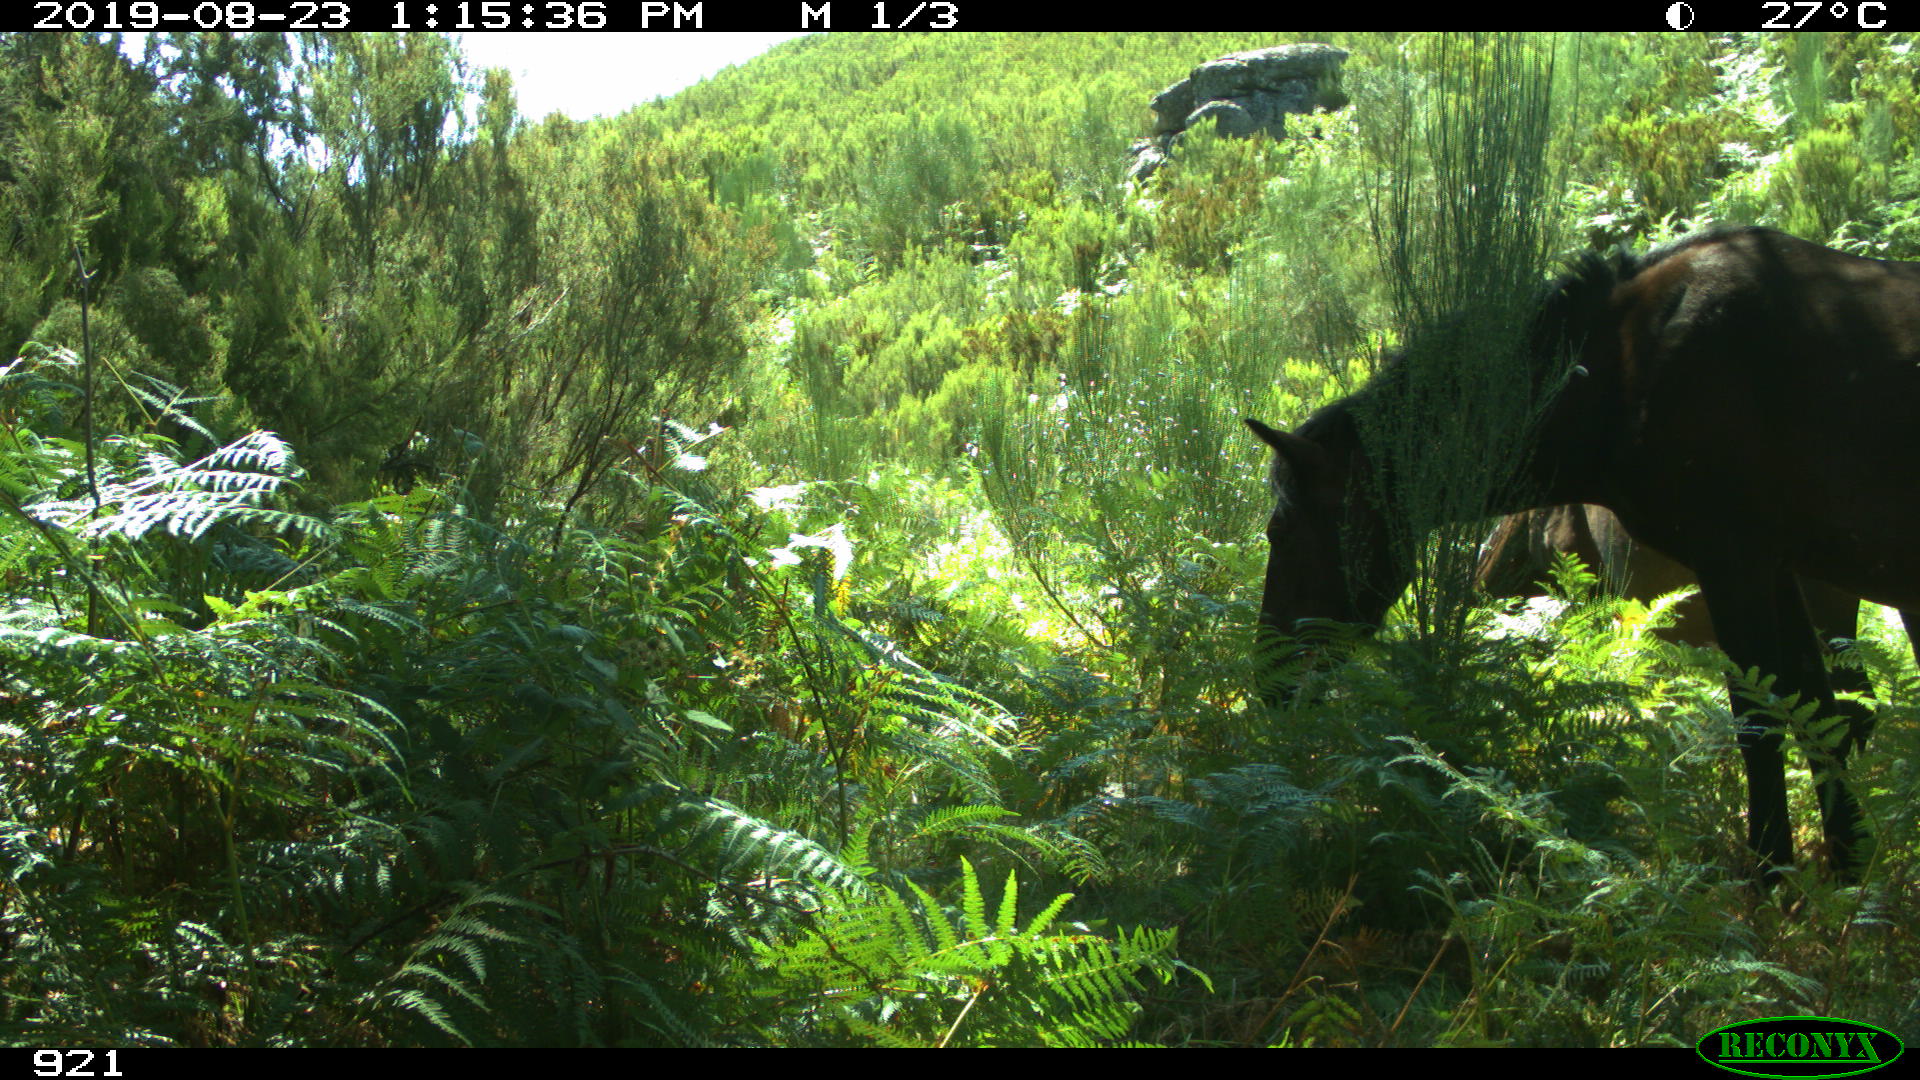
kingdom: Animalia
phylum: Chordata
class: Mammalia
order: Perissodactyla
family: Equidae
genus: Equus
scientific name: Equus caballus
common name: Horse
